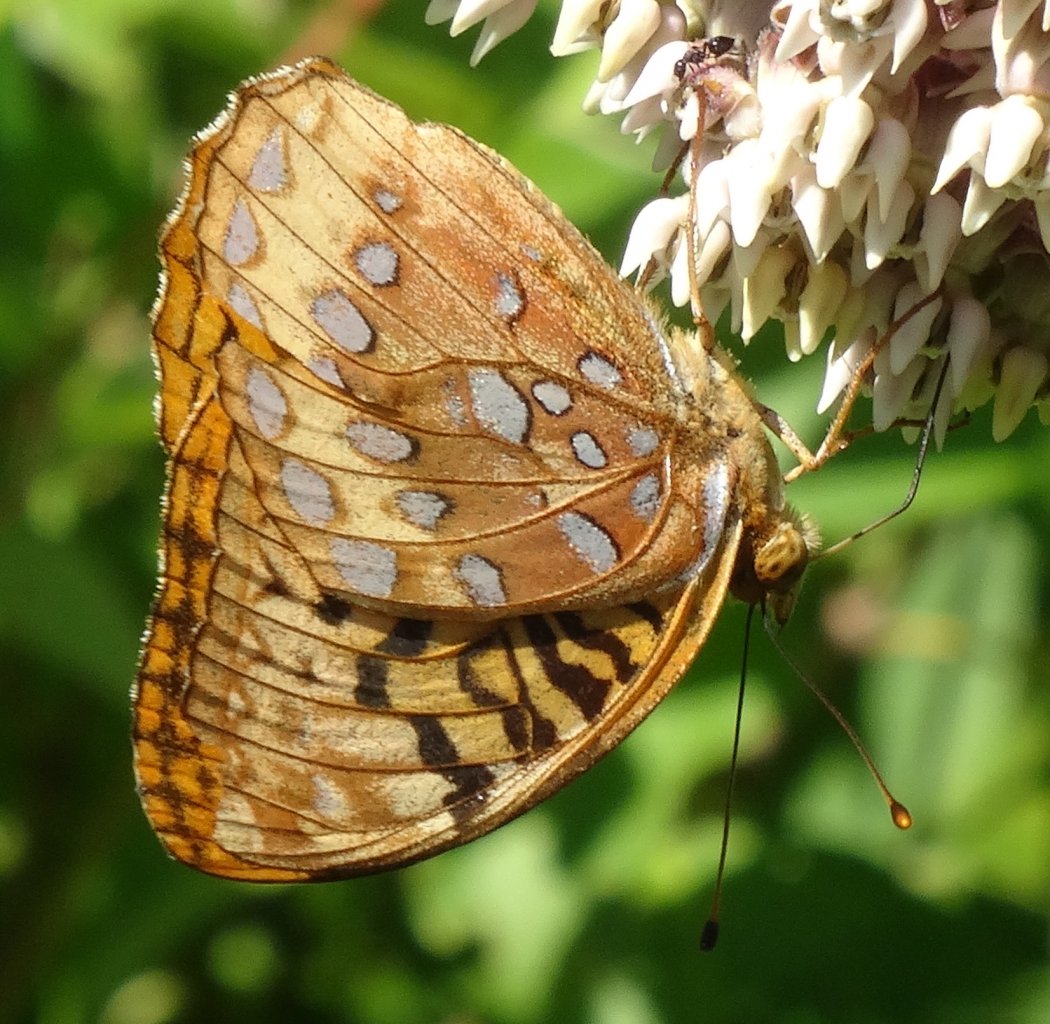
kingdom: Animalia
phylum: Arthropoda
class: Insecta
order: Lepidoptera
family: Nymphalidae
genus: Speyeria
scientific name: Speyeria cybele
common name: Great Spangled Fritillary
